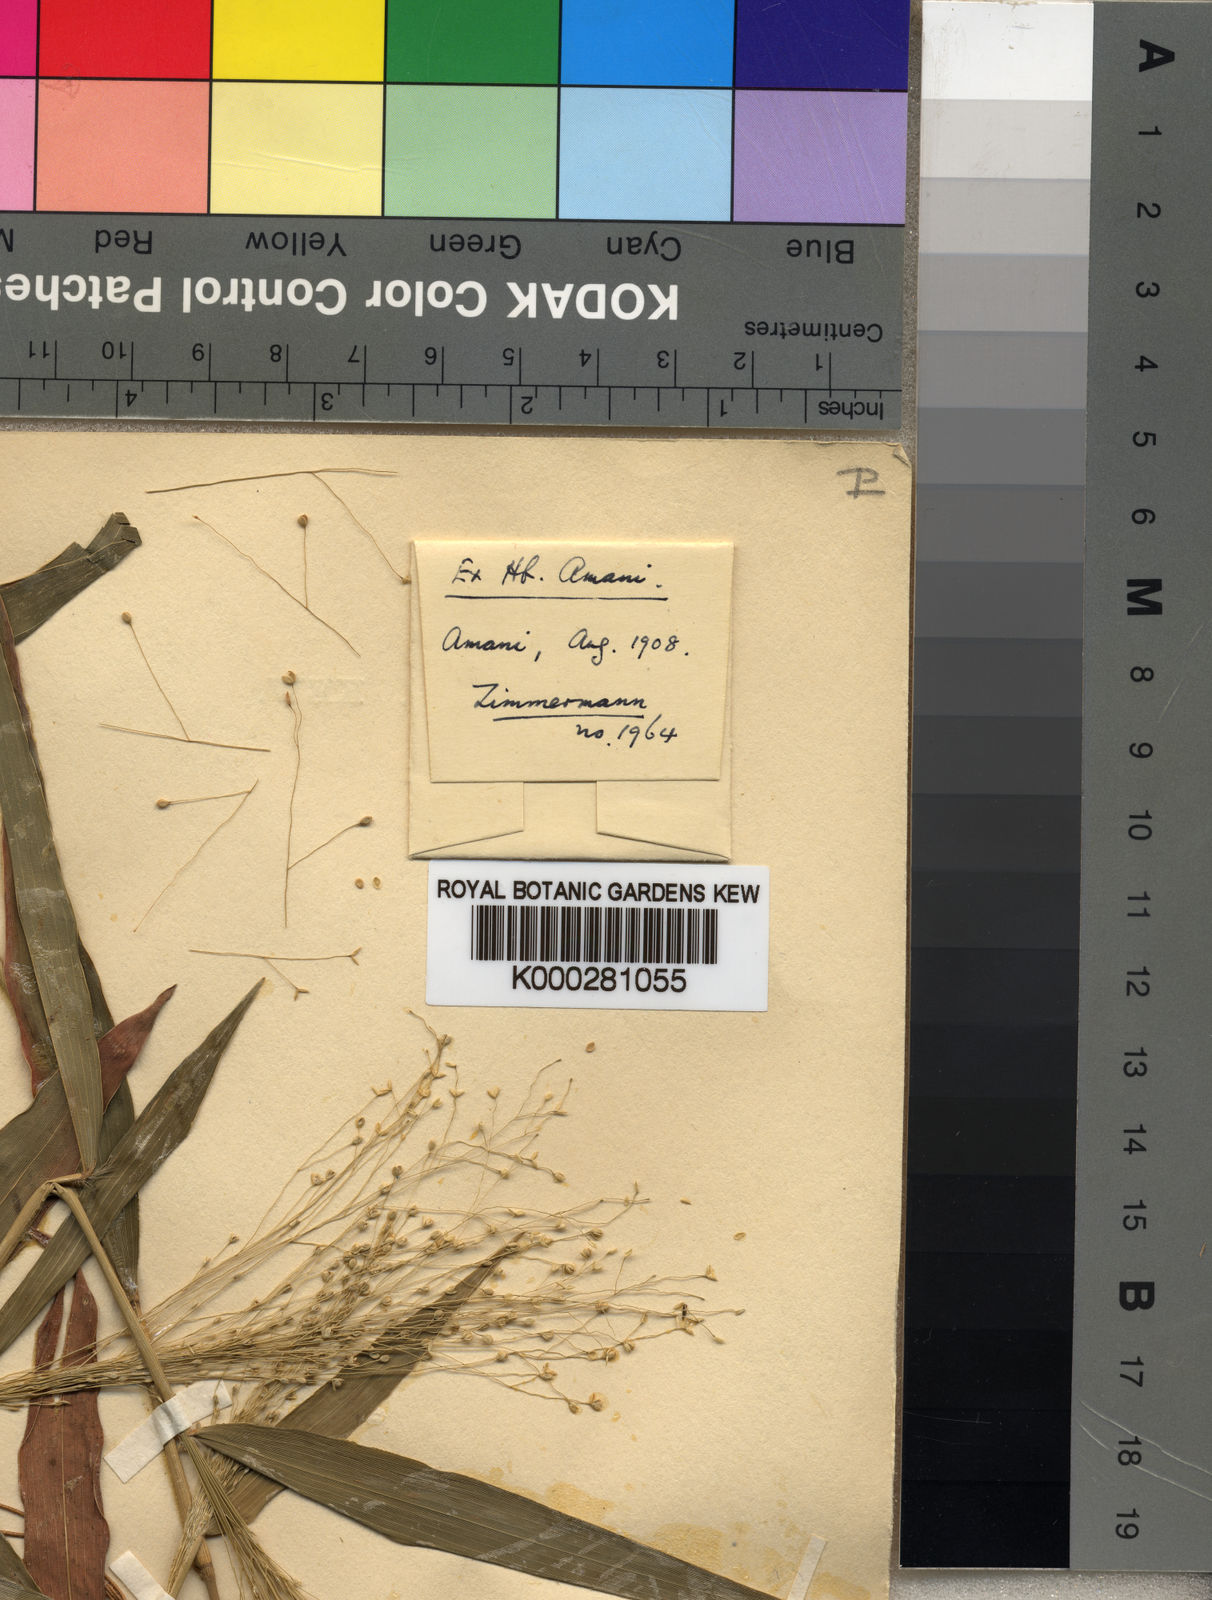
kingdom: Plantae
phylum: Tracheophyta
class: Liliopsida
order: Poales
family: Poaceae
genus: Isachne
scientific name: Isachne mauritiana
